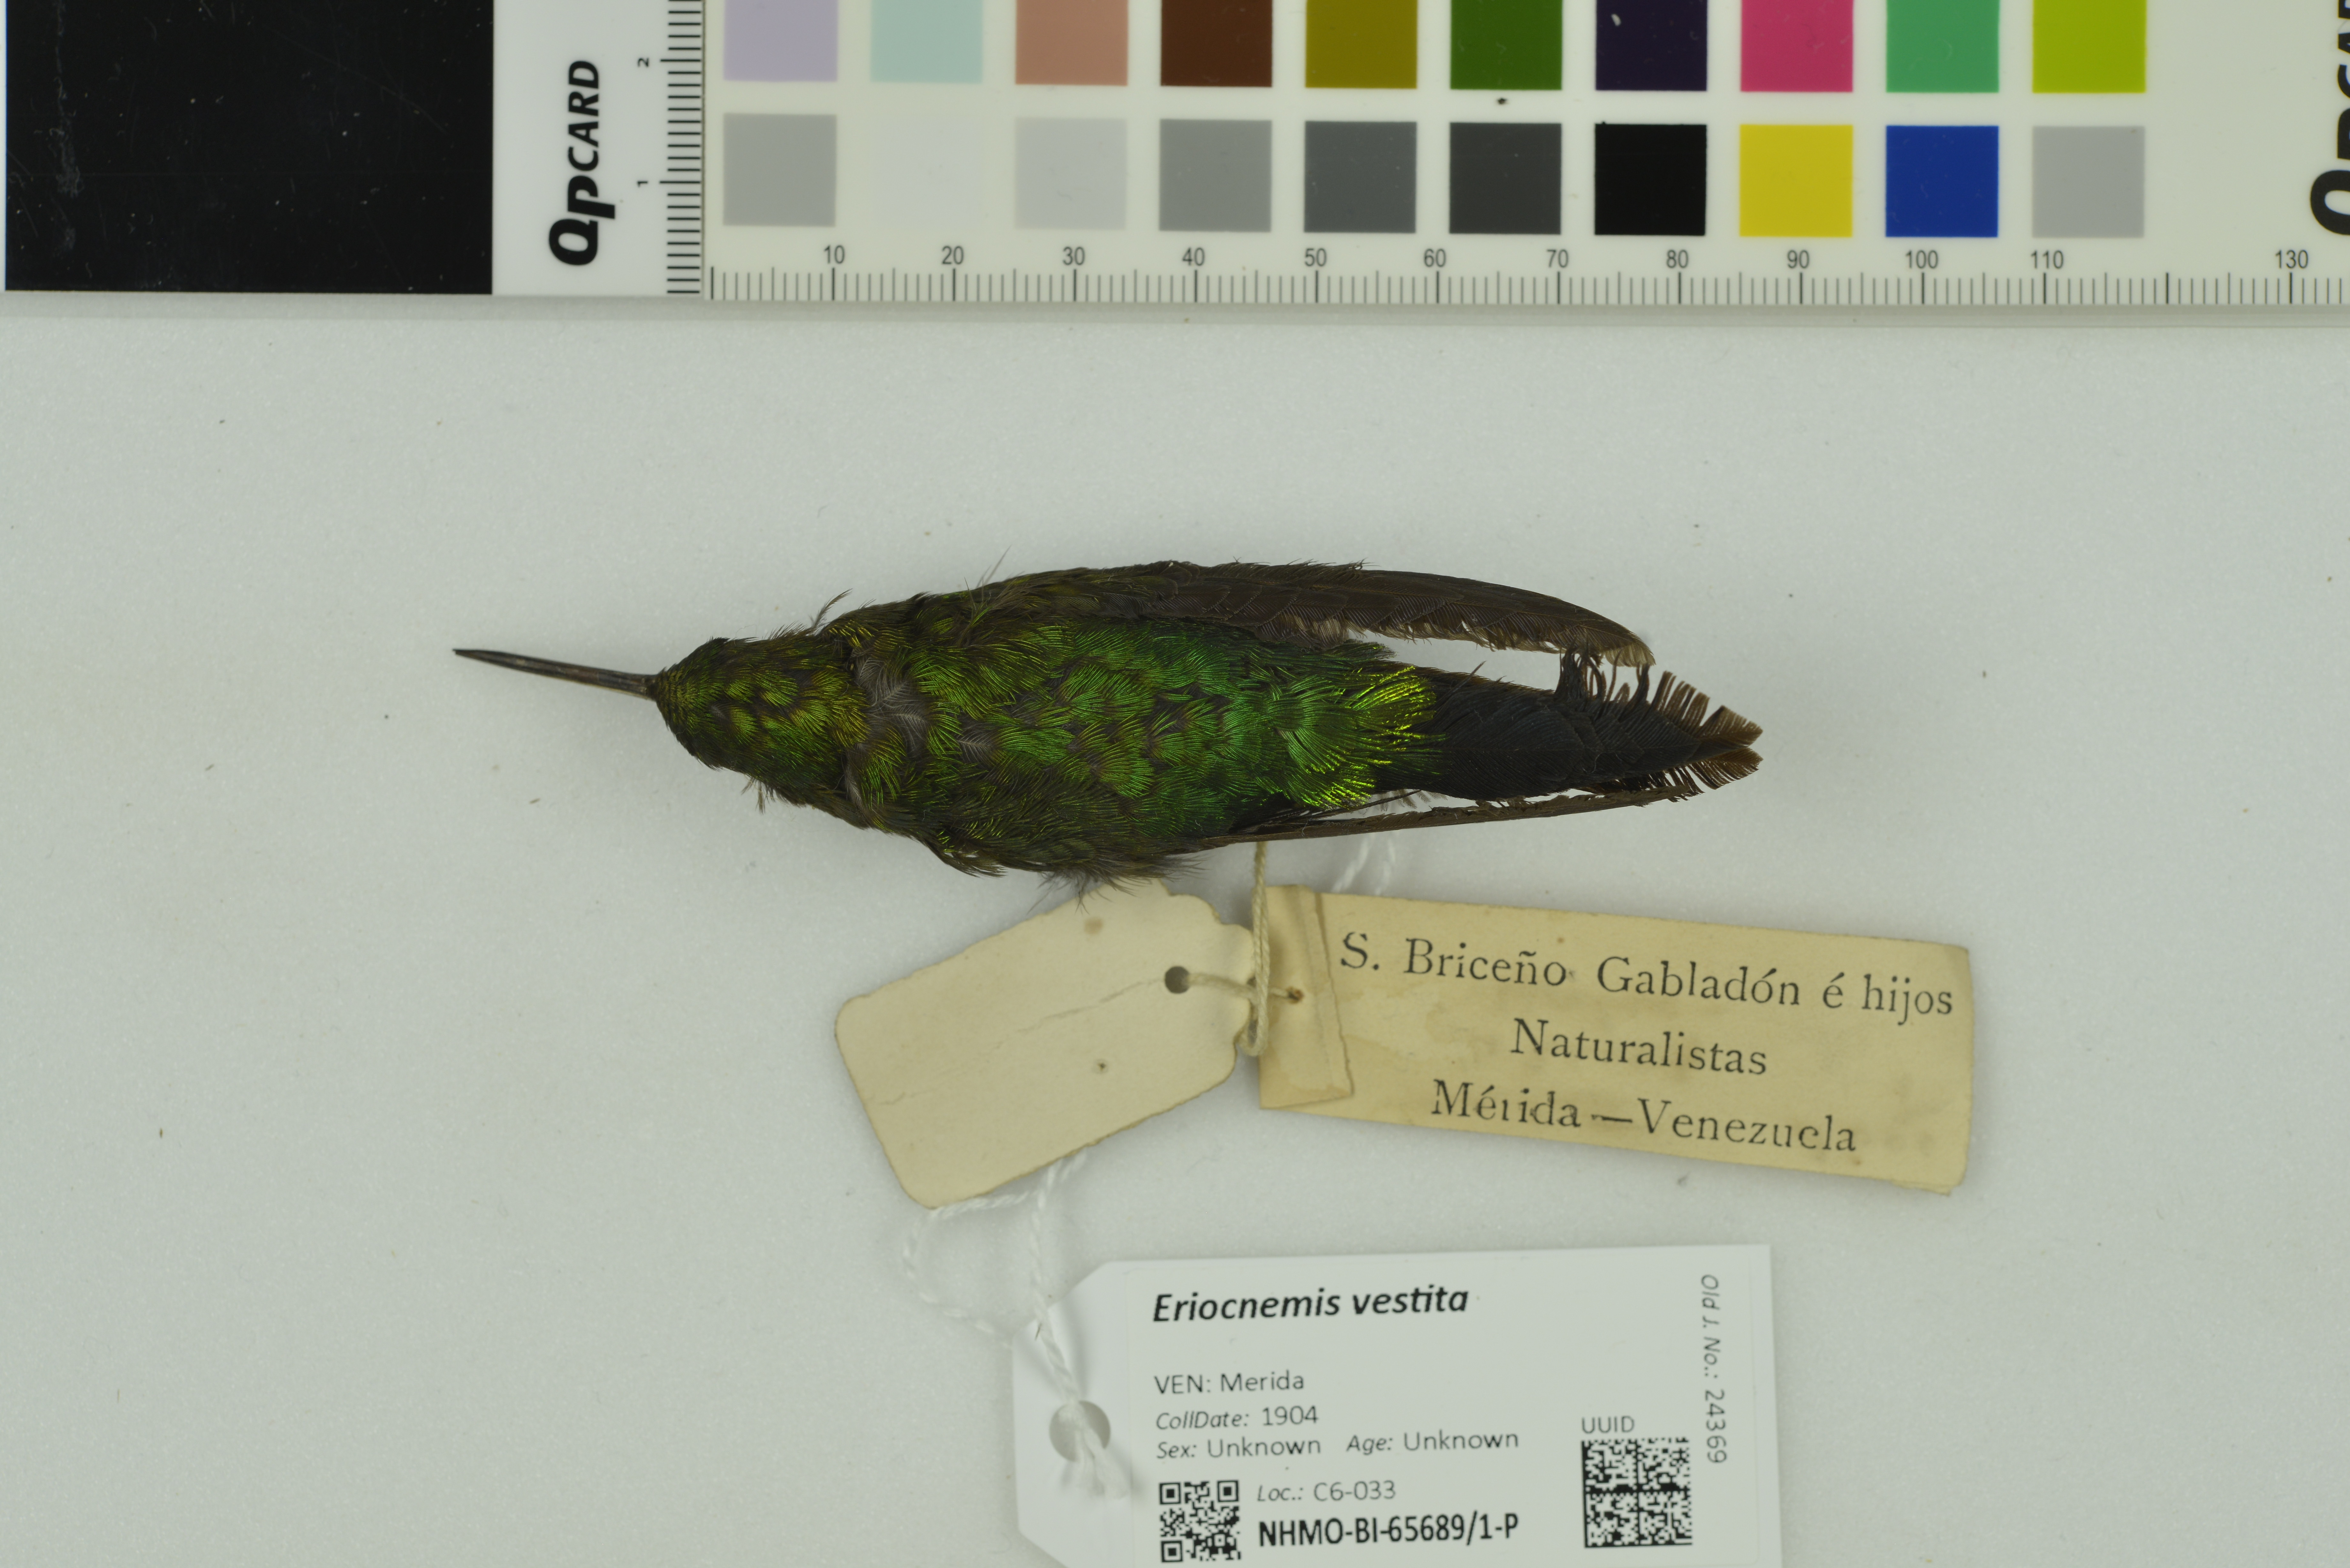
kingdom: Animalia
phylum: Chordata
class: Aves
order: Apodiformes
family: Trochilidae
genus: Eriocnemis
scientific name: Eriocnemis vestita
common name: Glowing puffleg
